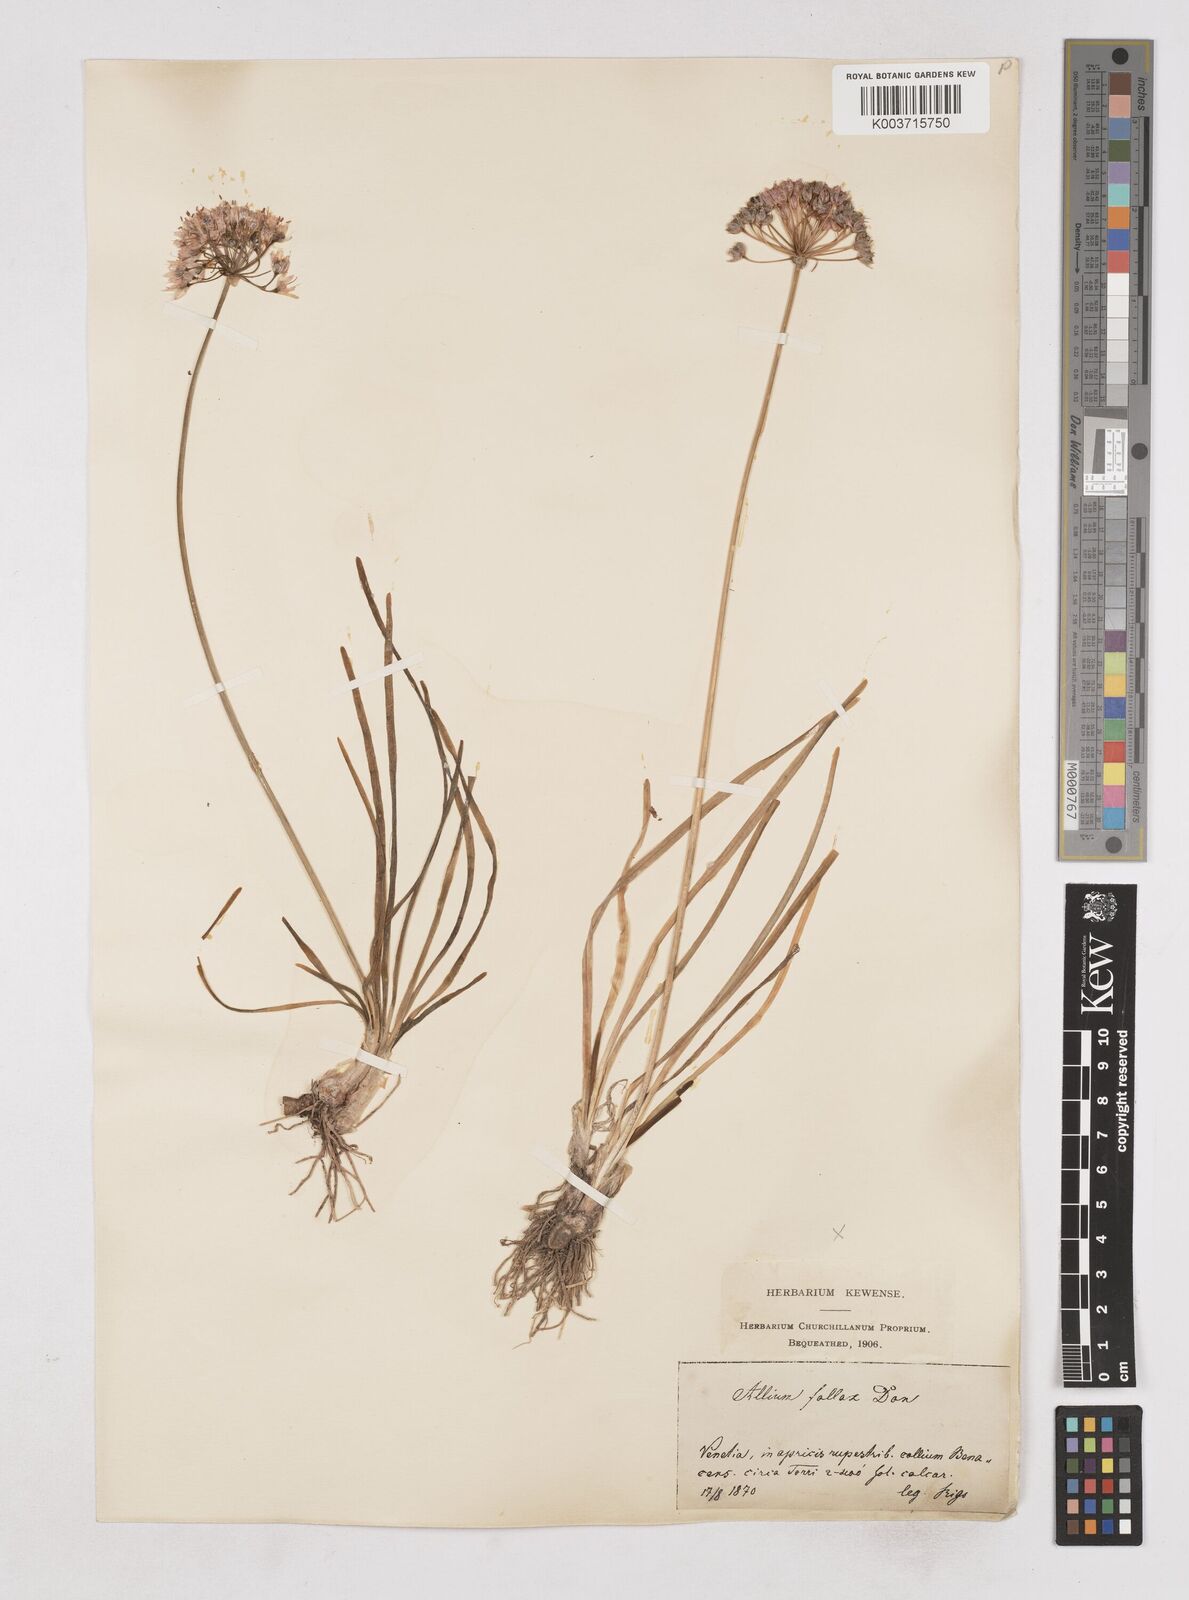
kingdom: Plantae
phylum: Tracheophyta
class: Liliopsida
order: Asparagales
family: Amaryllidaceae
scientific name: Amaryllidaceae
